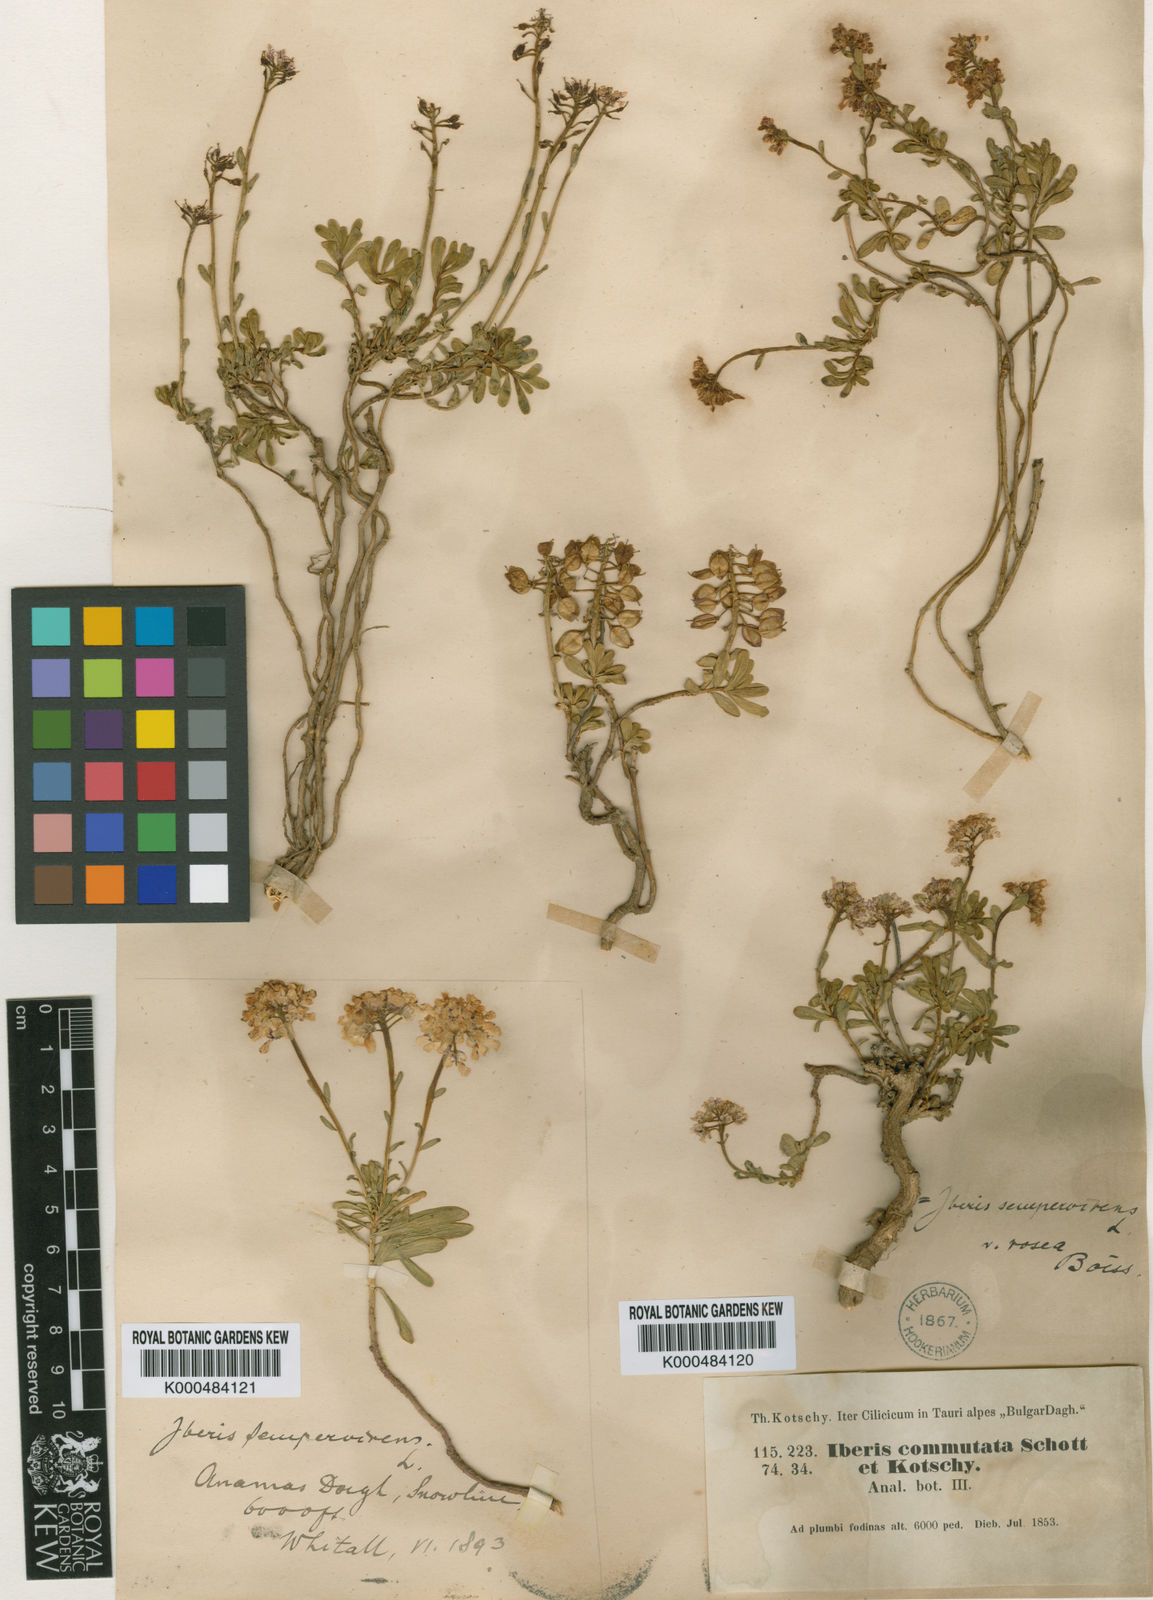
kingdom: Plantae
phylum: Tracheophyta
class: Magnoliopsida
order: Brassicales
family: Brassicaceae
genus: Iberis
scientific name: Iberis sempervirens
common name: Evergreen candytuft
